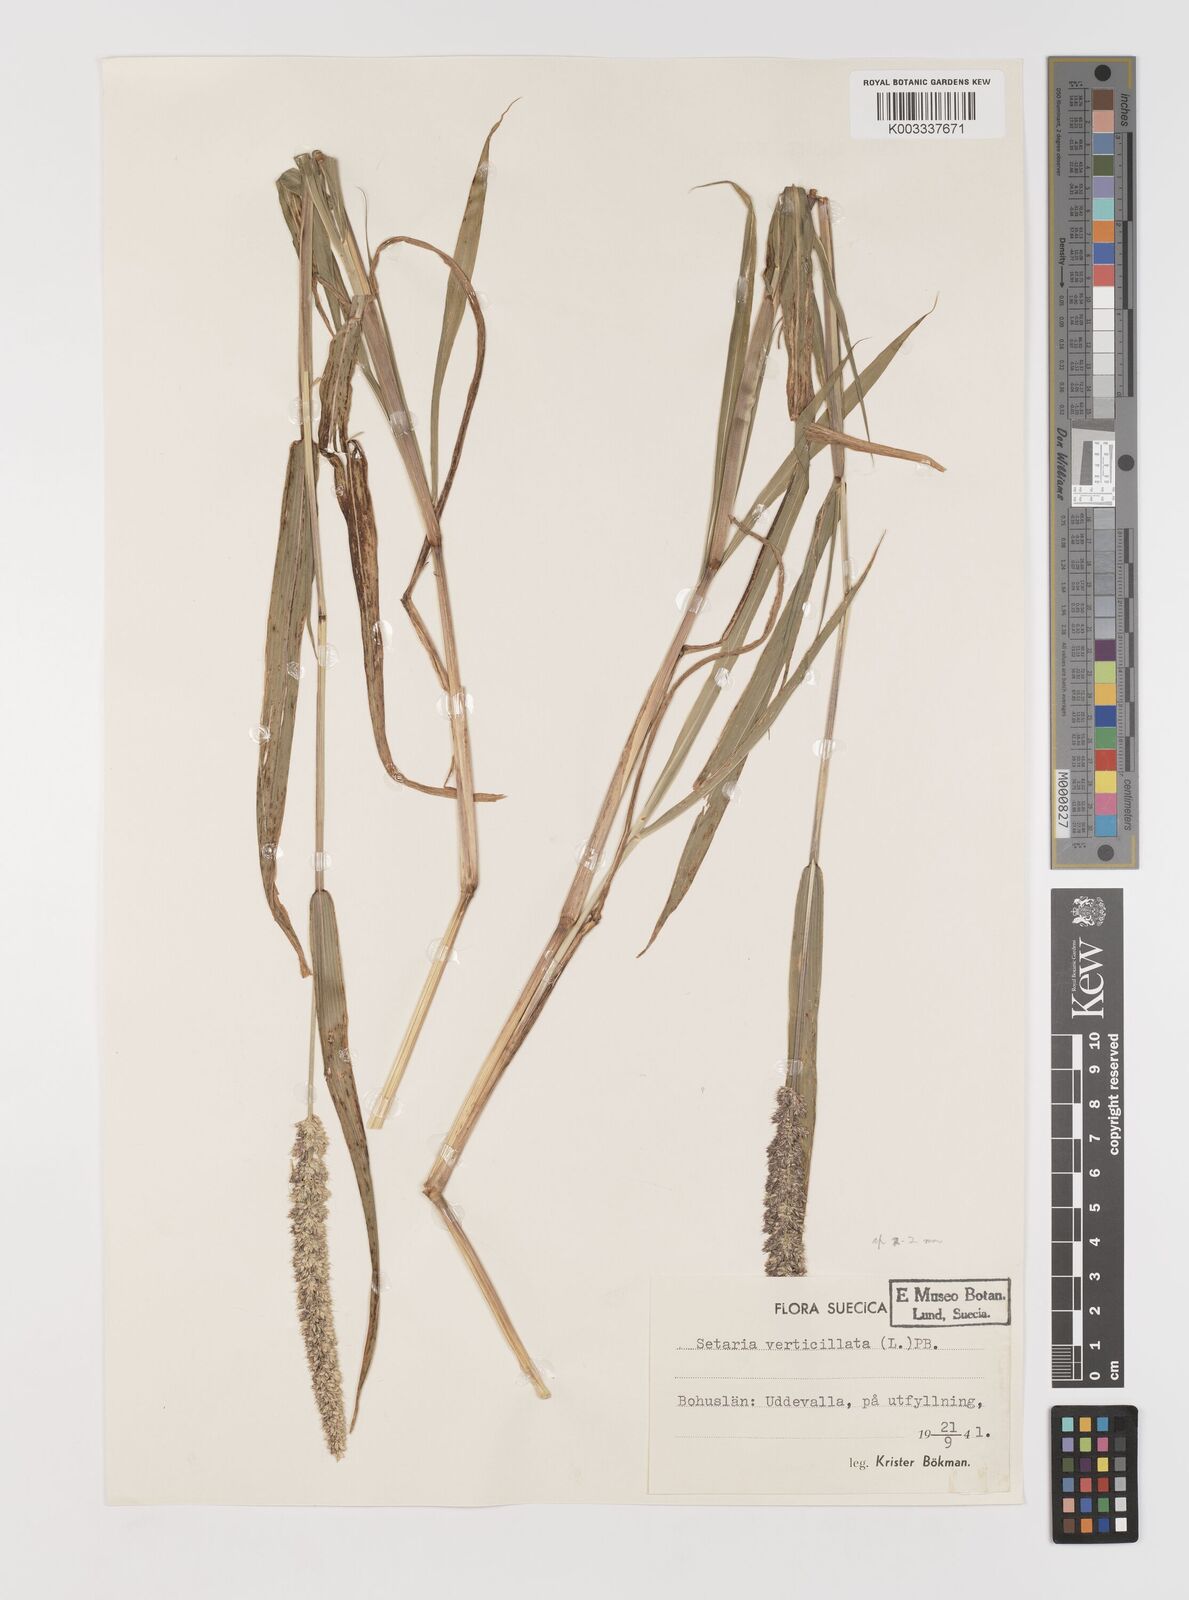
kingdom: Plantae
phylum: Tracheophyta
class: Liliopsida
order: Poales
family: Poaceae
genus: Setaria
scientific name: Setaria verticillata
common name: Hooked bristlegrass
